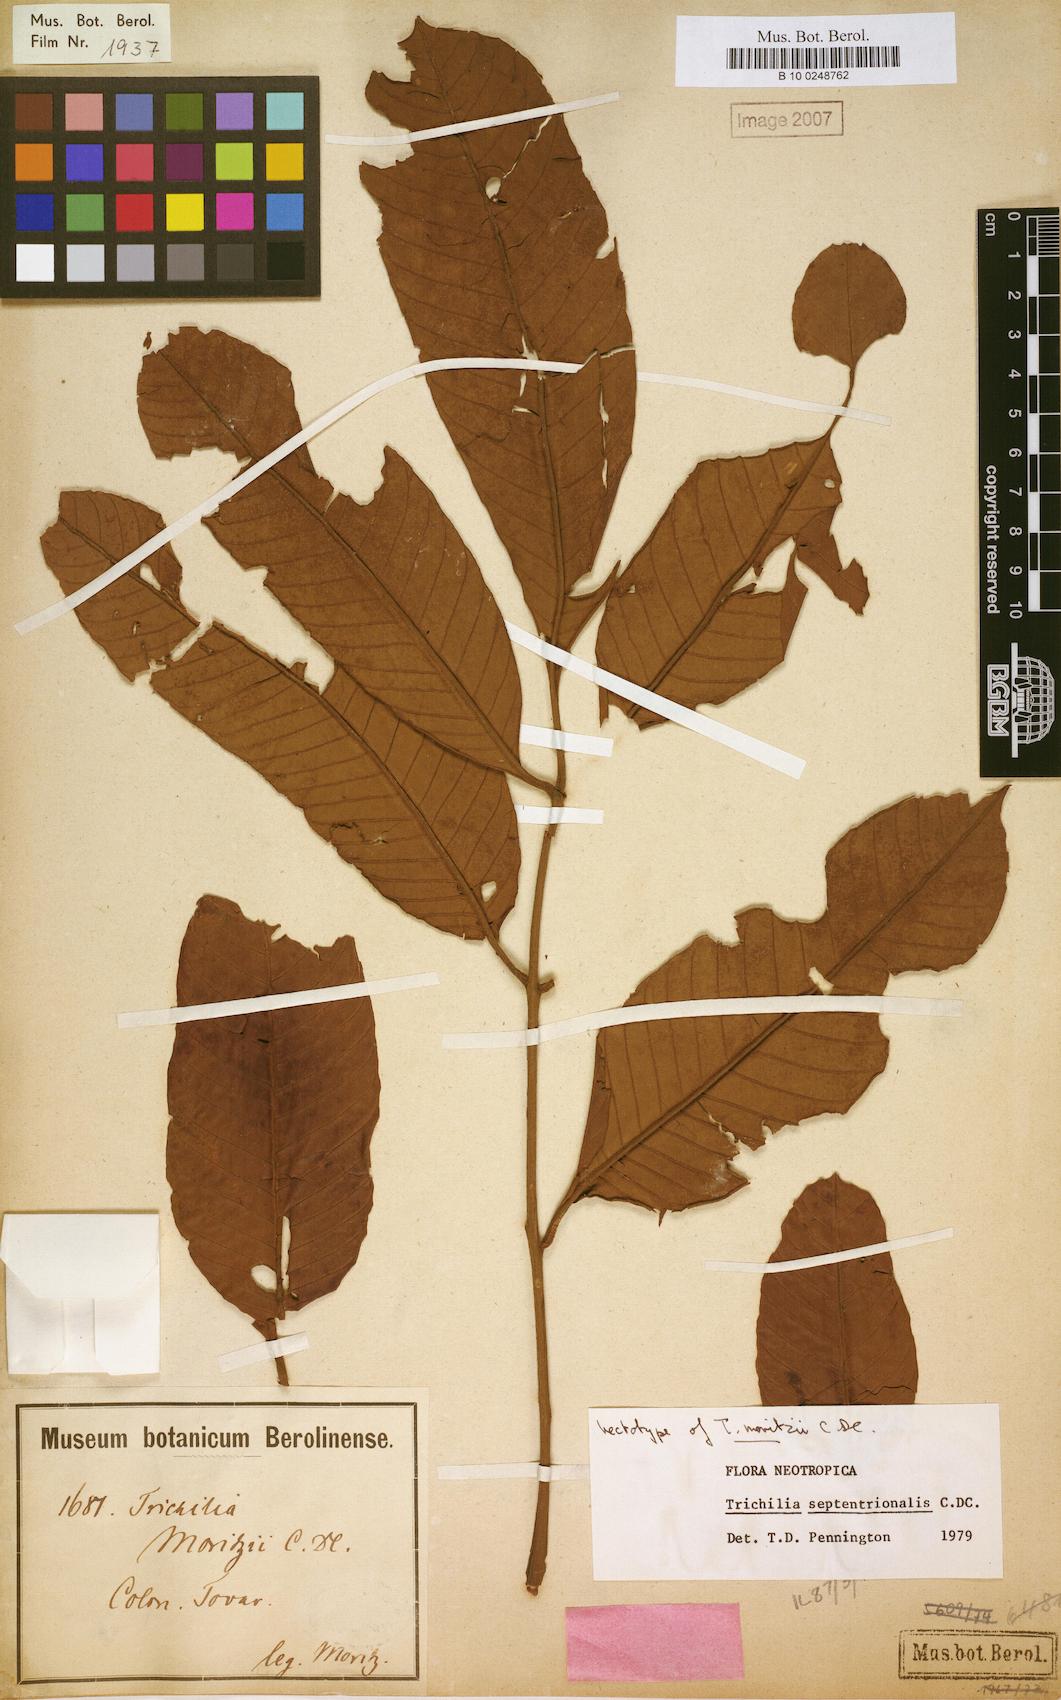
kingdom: Plantae
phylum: Tracheophyta
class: Magnoliopsida
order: Sapindales
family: Meliaceae
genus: Trichilia
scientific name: Trichilia septentrionalis
